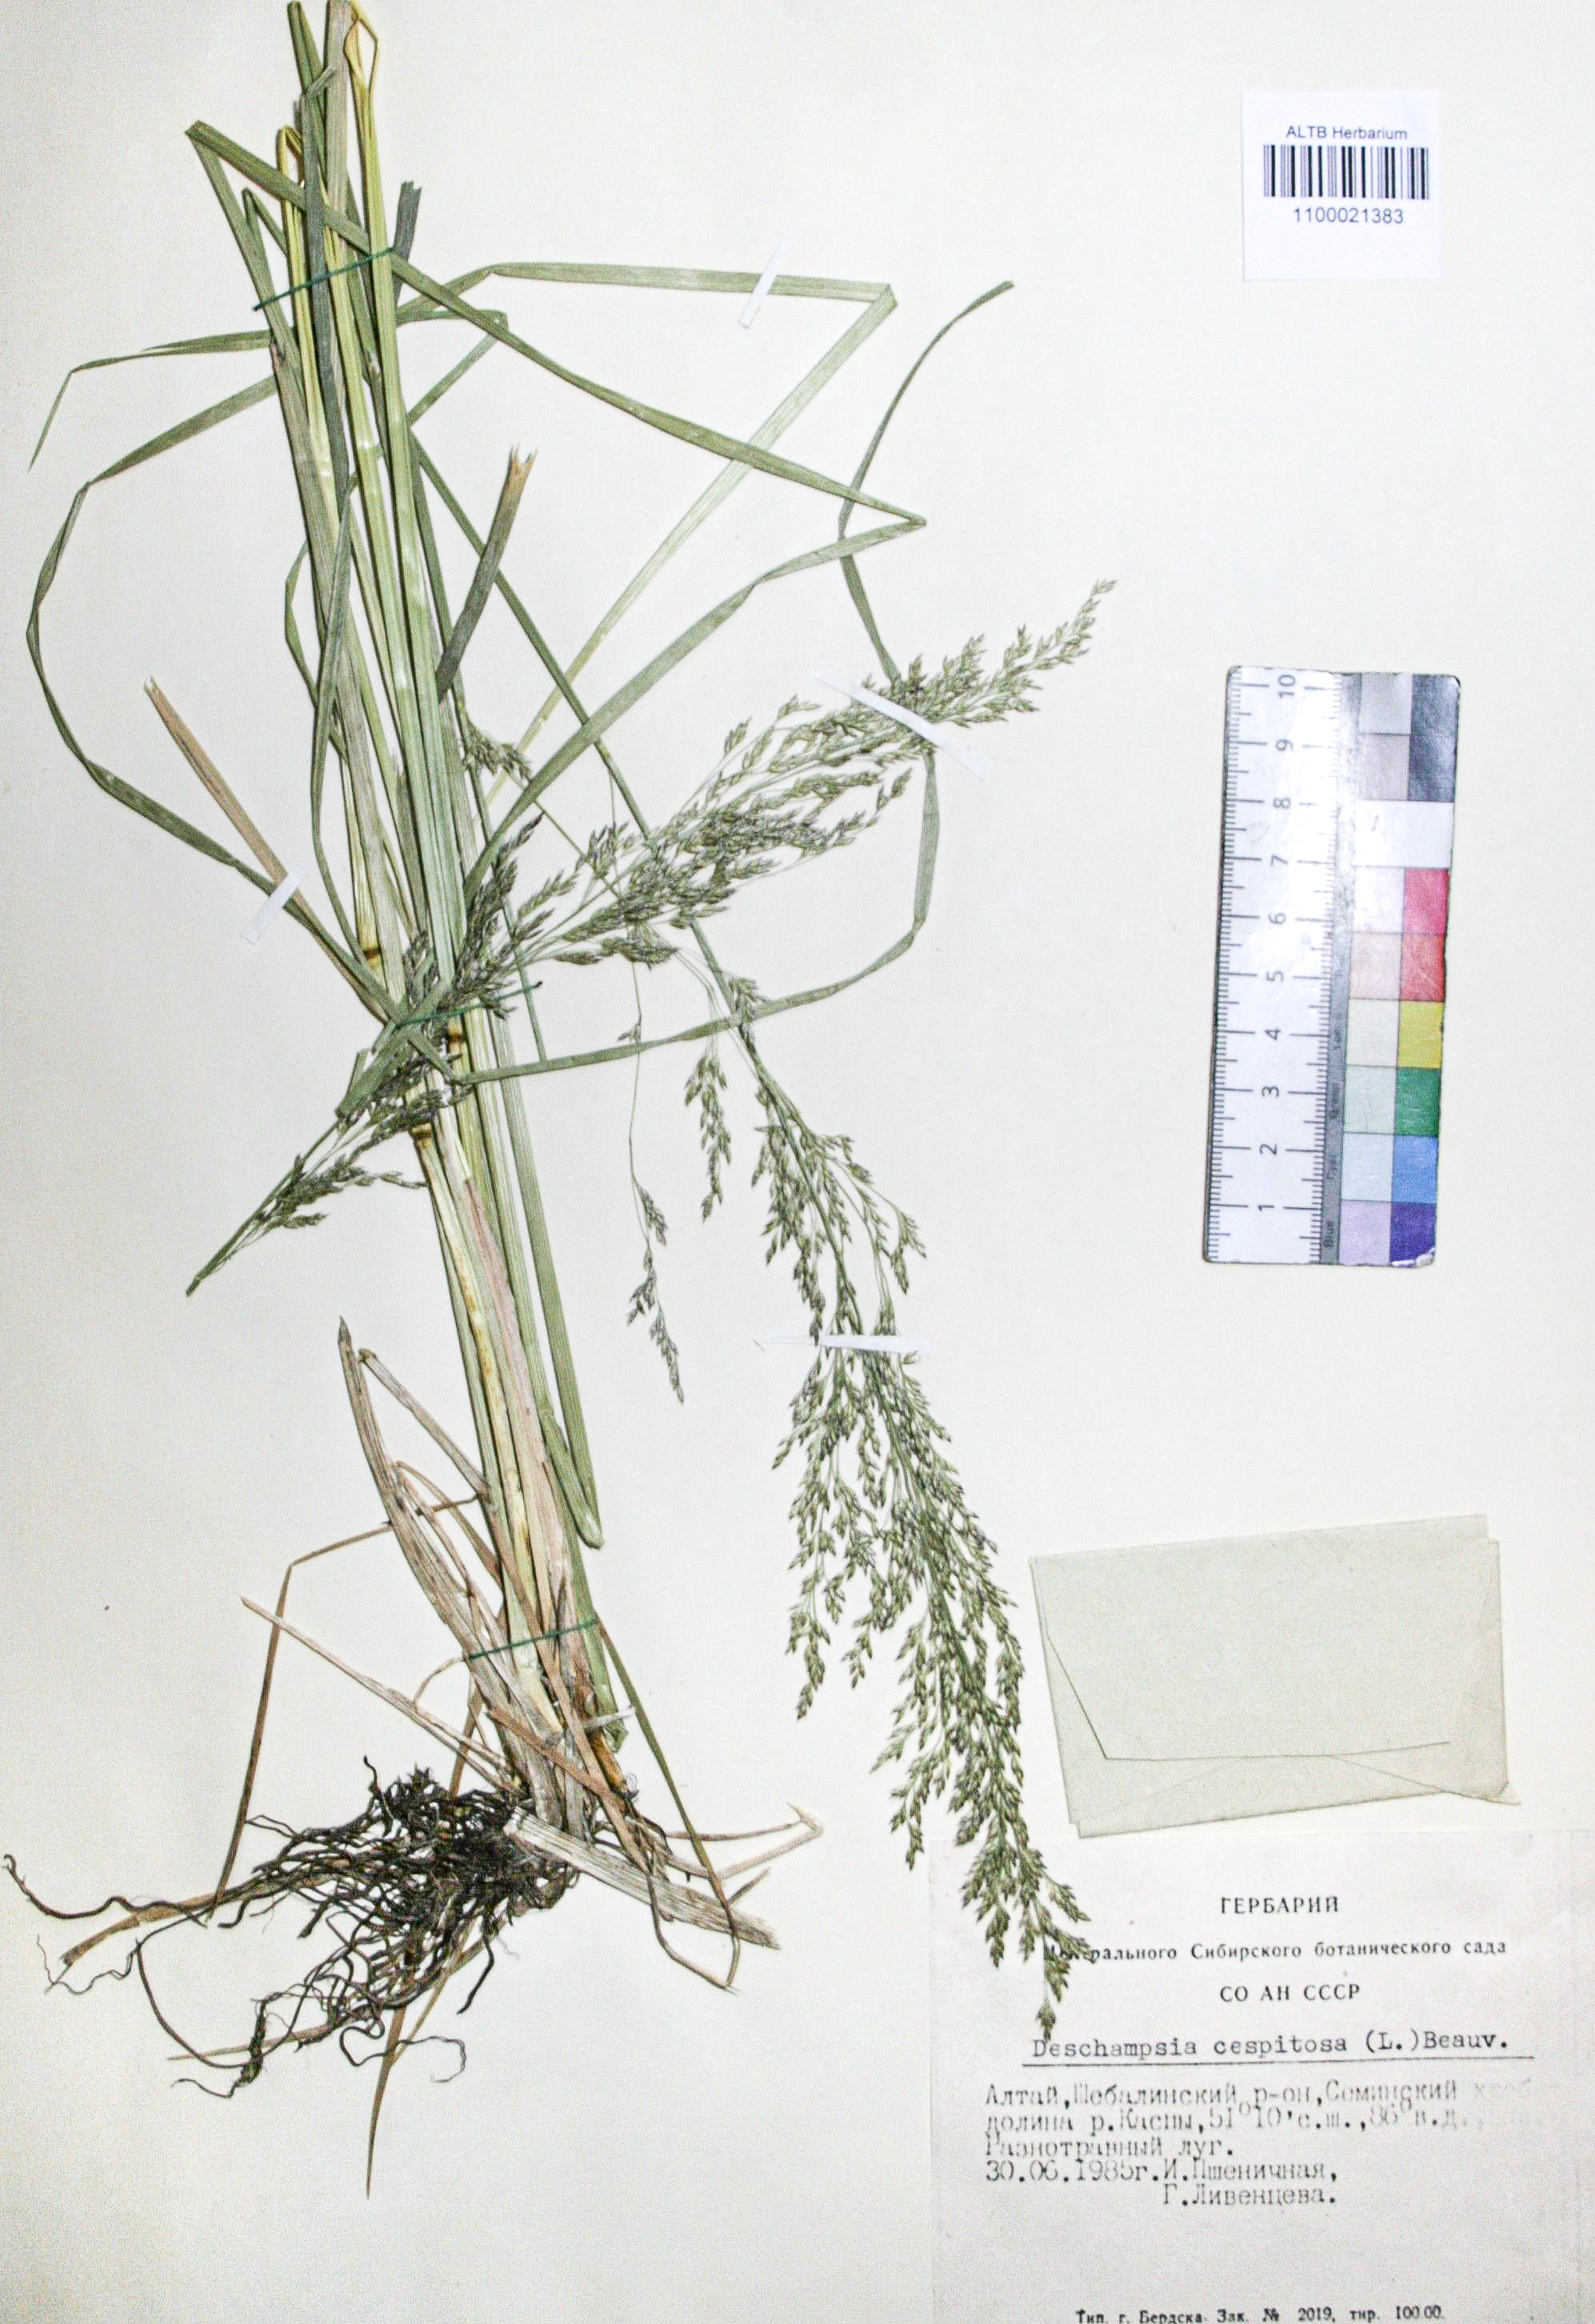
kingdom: Plantae
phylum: Tracheophyta
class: Liliopsida
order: Poales
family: Poaceae
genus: Deschampsia
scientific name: Deschampsia cespitosa
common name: Tufted hair-grass
